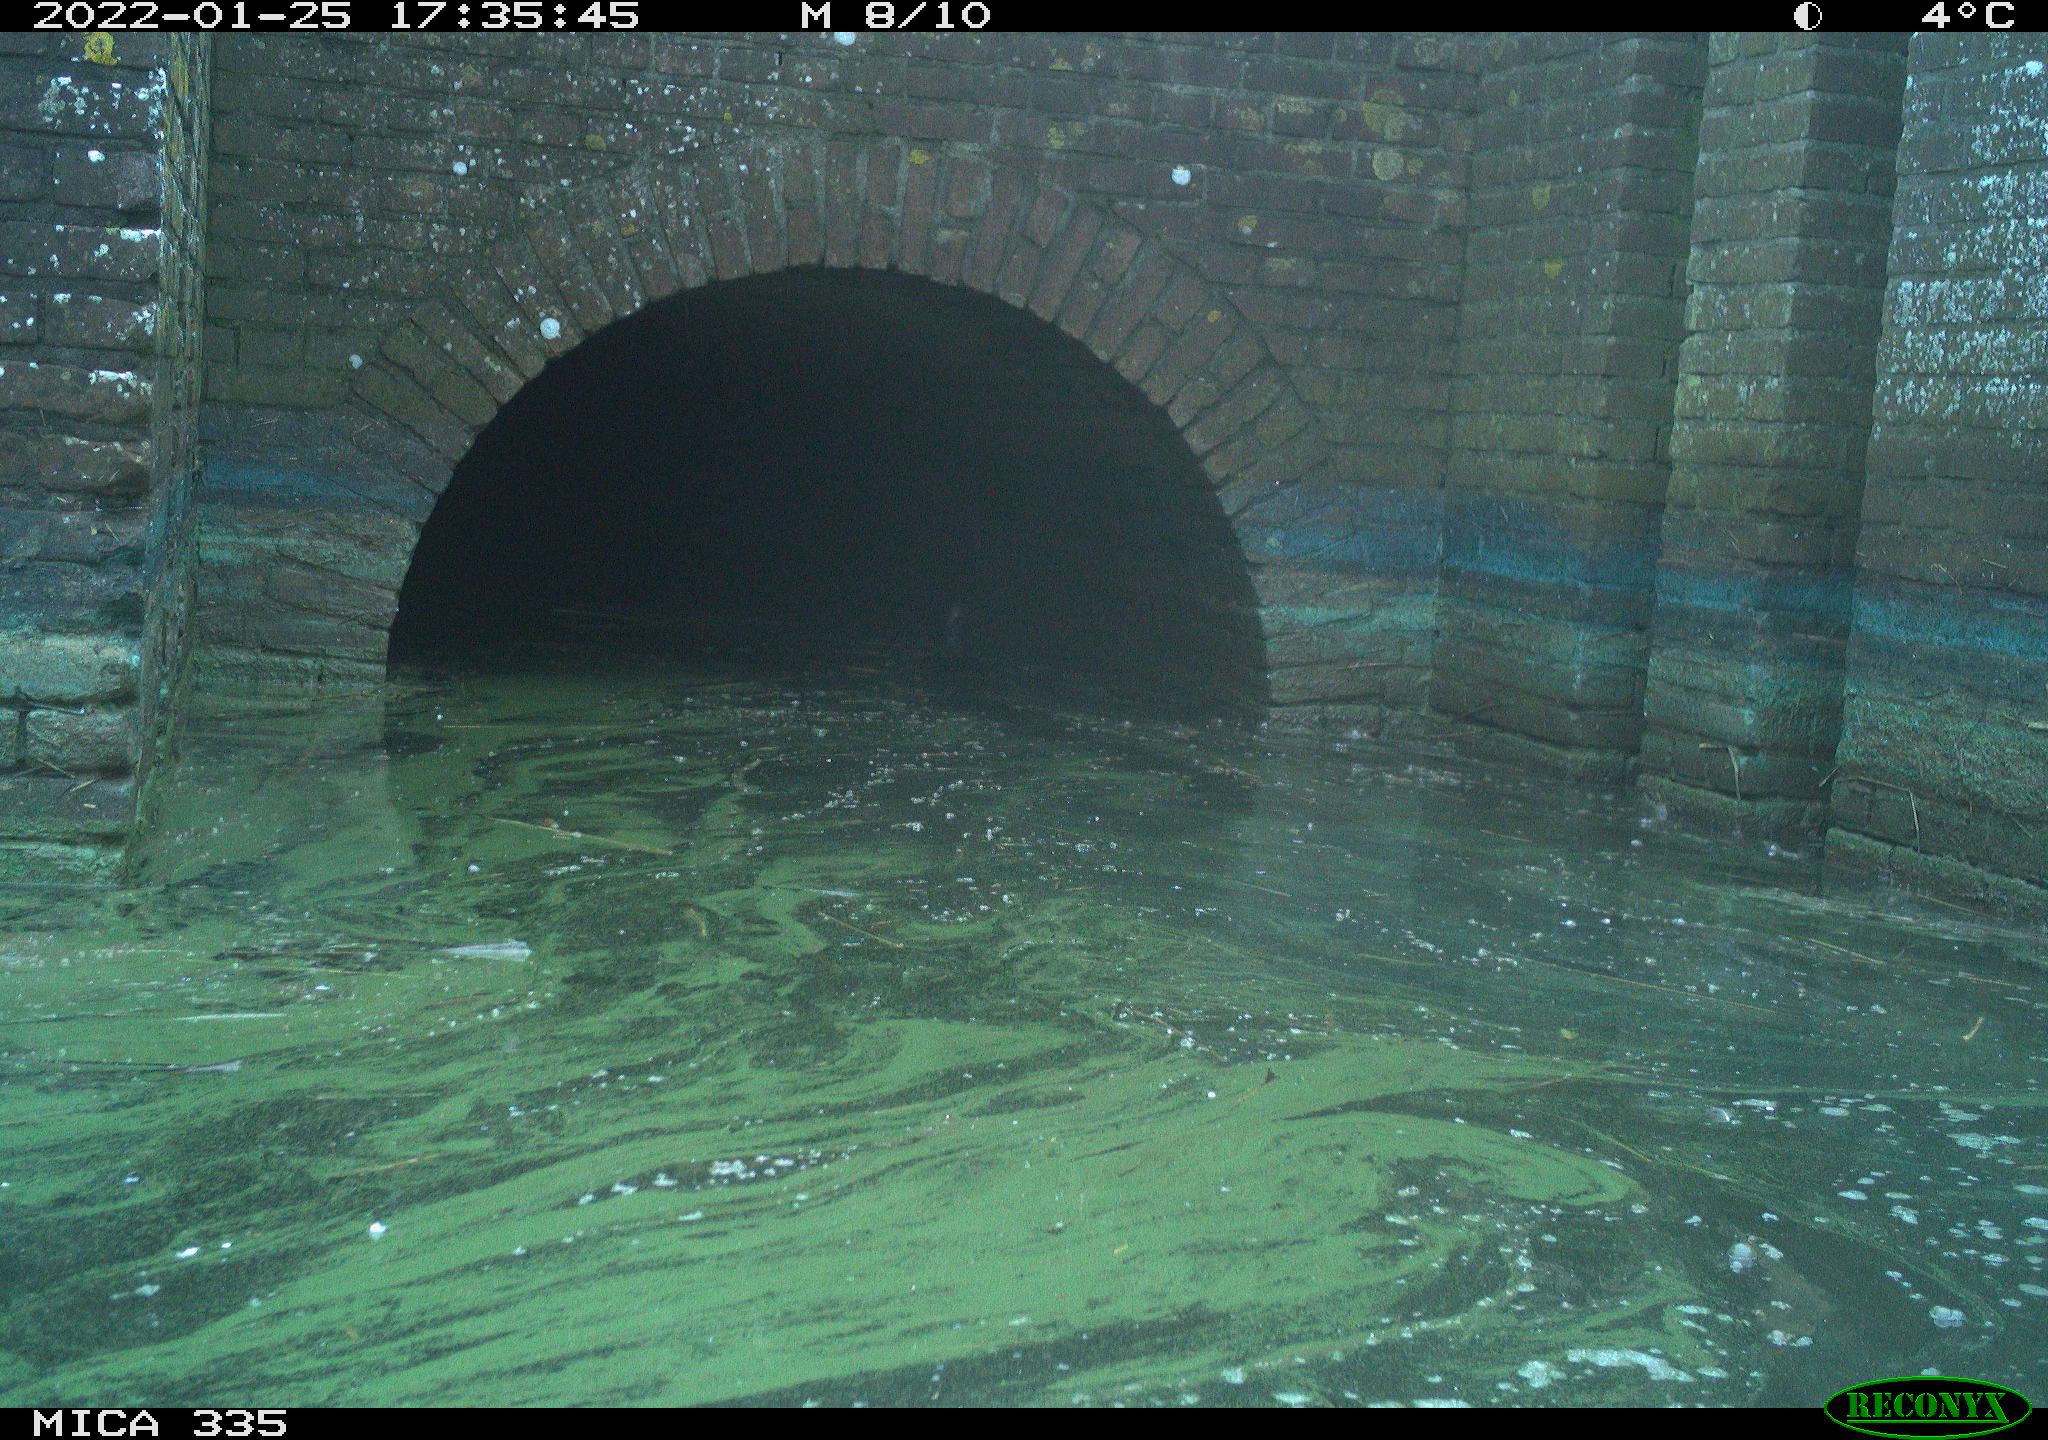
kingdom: Animalia
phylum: Chordata
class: Aves
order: Suliformes
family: Phalacrocoracidae
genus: Phalacrocorax
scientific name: Phalacrocorax carbo
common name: Great cormorant
